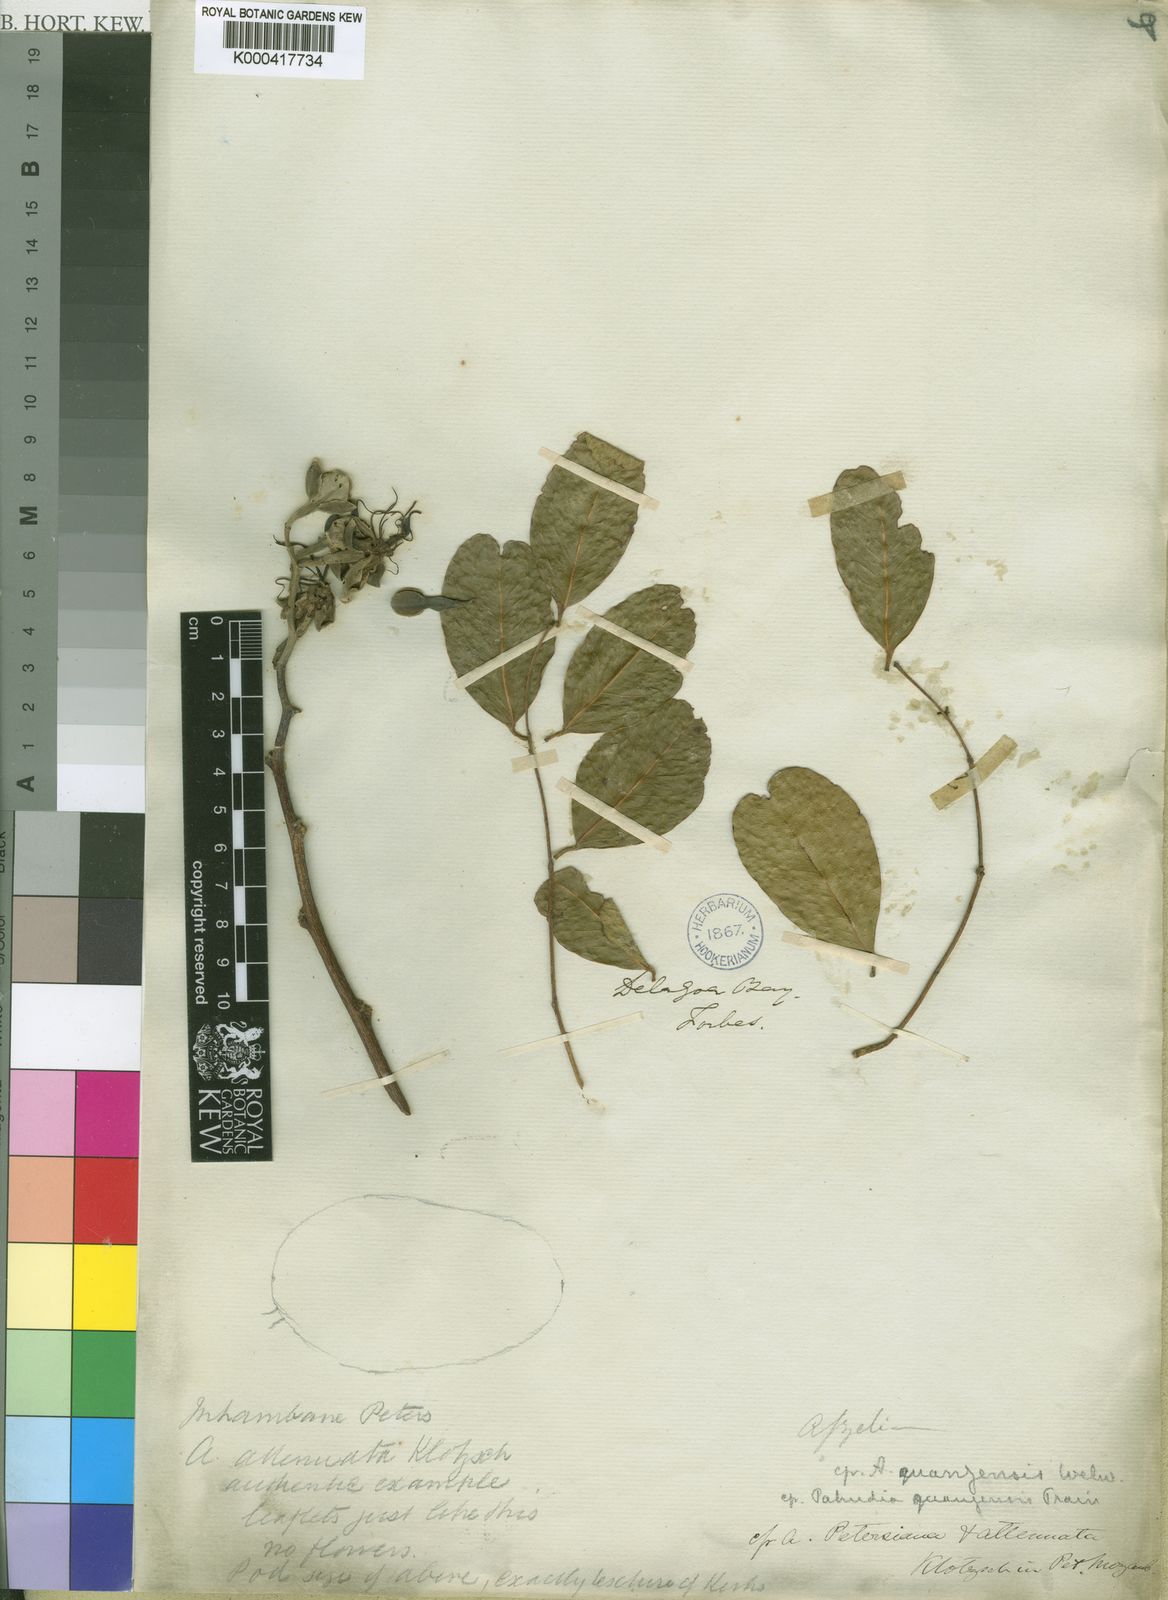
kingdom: Plantae
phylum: Tracheophyta
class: Magnoliopsida
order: Fabales
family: Fabaceae
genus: Afzelia
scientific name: Afzelia quanzensis
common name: Pod mahogany
